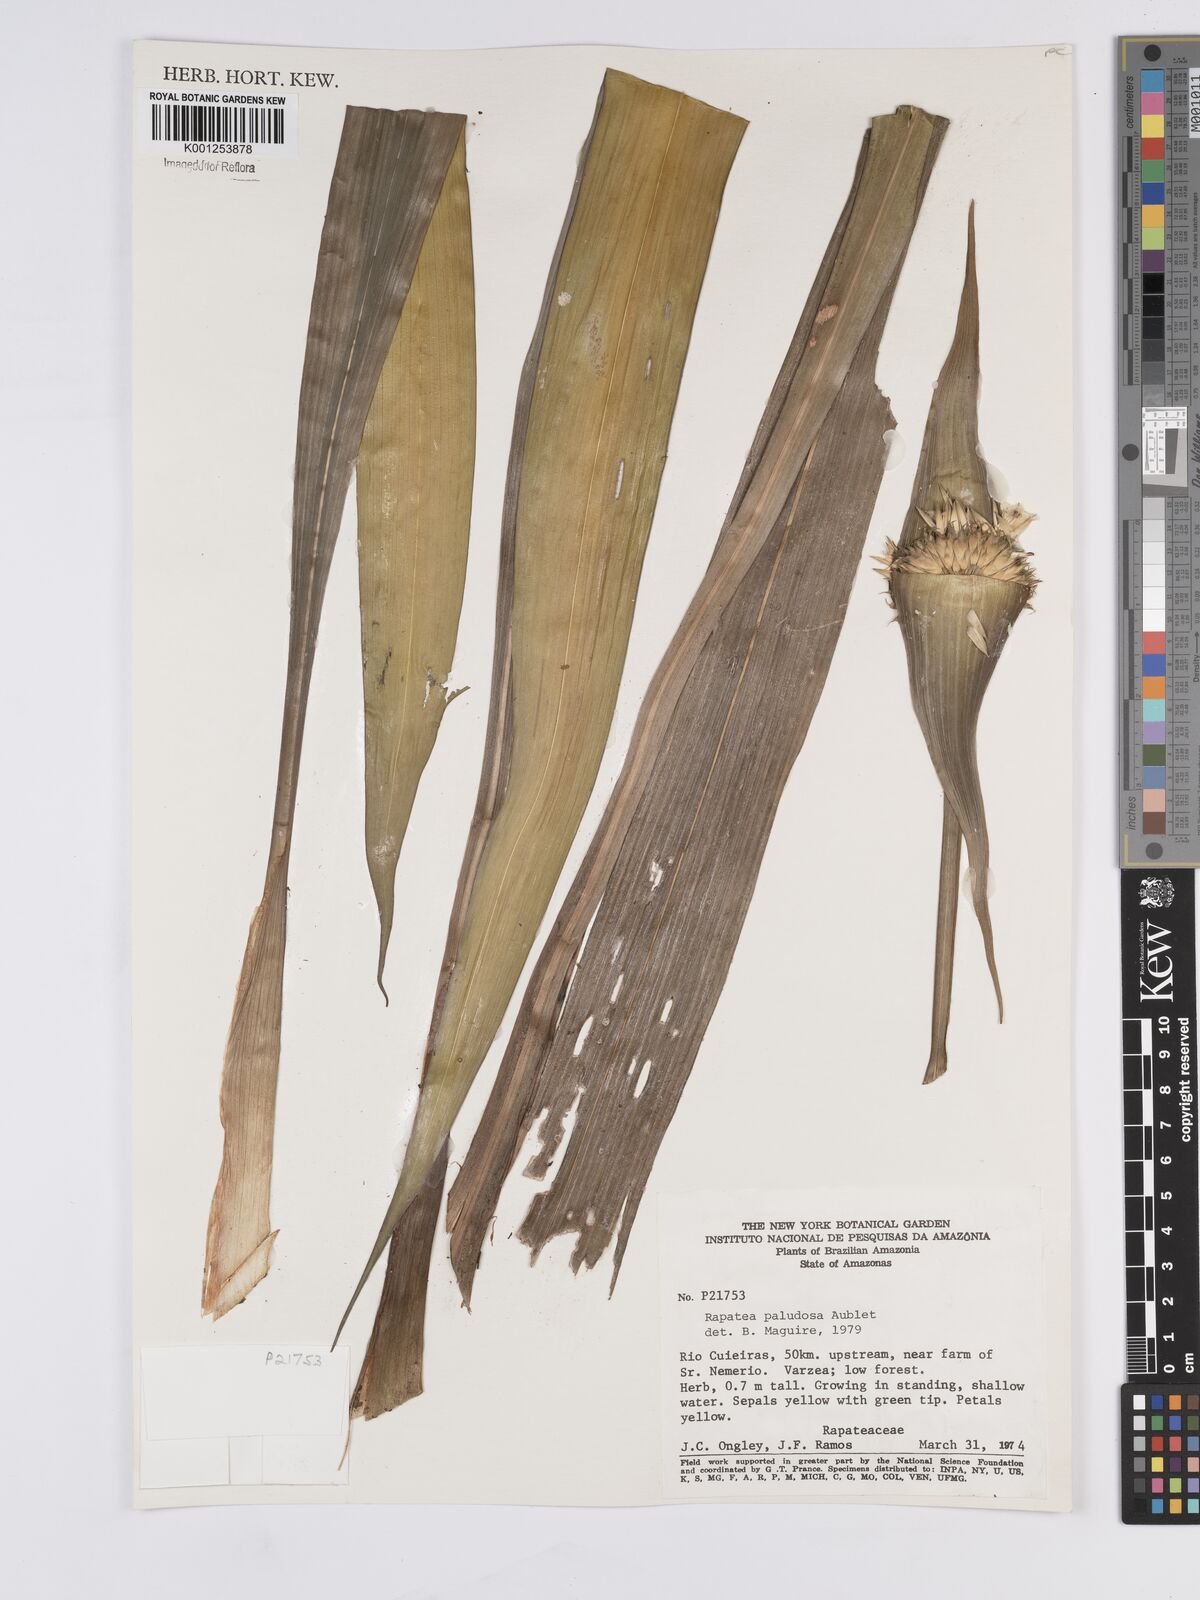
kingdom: Plantae
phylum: Tracheophyta
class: Liliopsida
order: Poales
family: Rapateaceae
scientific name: Rapateaceae
